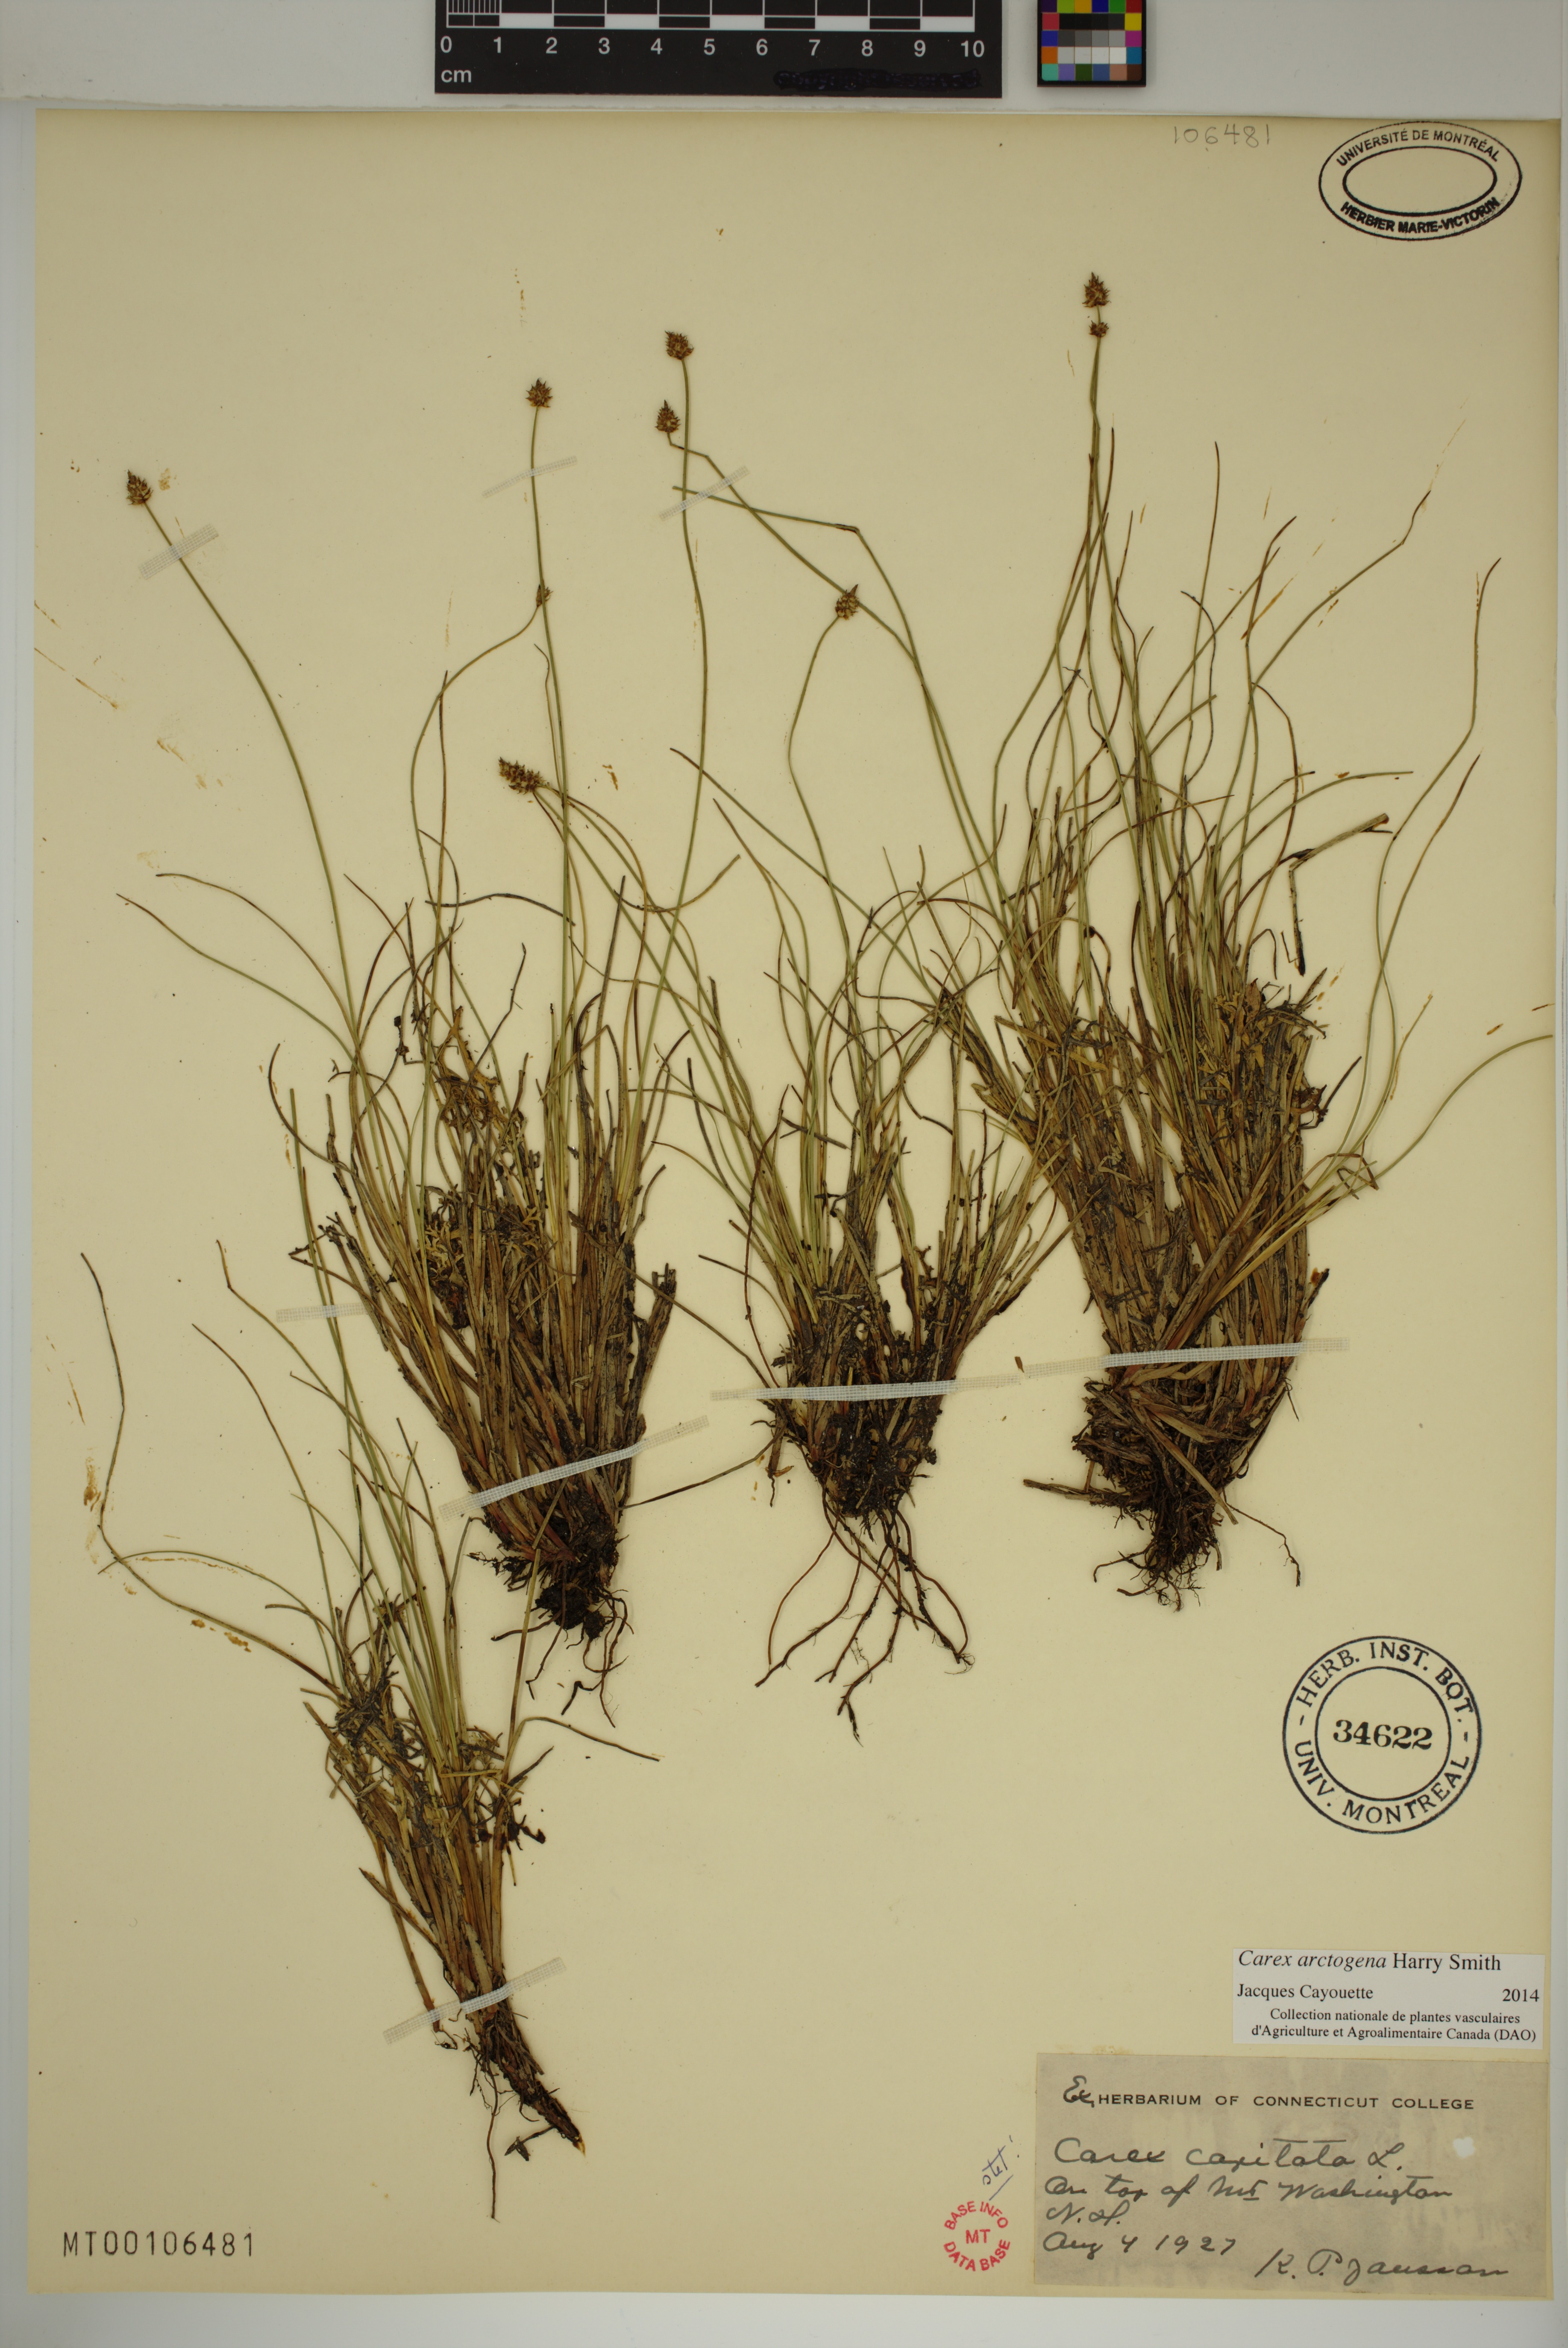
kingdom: Plantae
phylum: Tracheophyta
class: Liliopsida
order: Poales
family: Cyperaceae
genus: Carex
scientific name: Carex arctogena
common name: Black sedge
